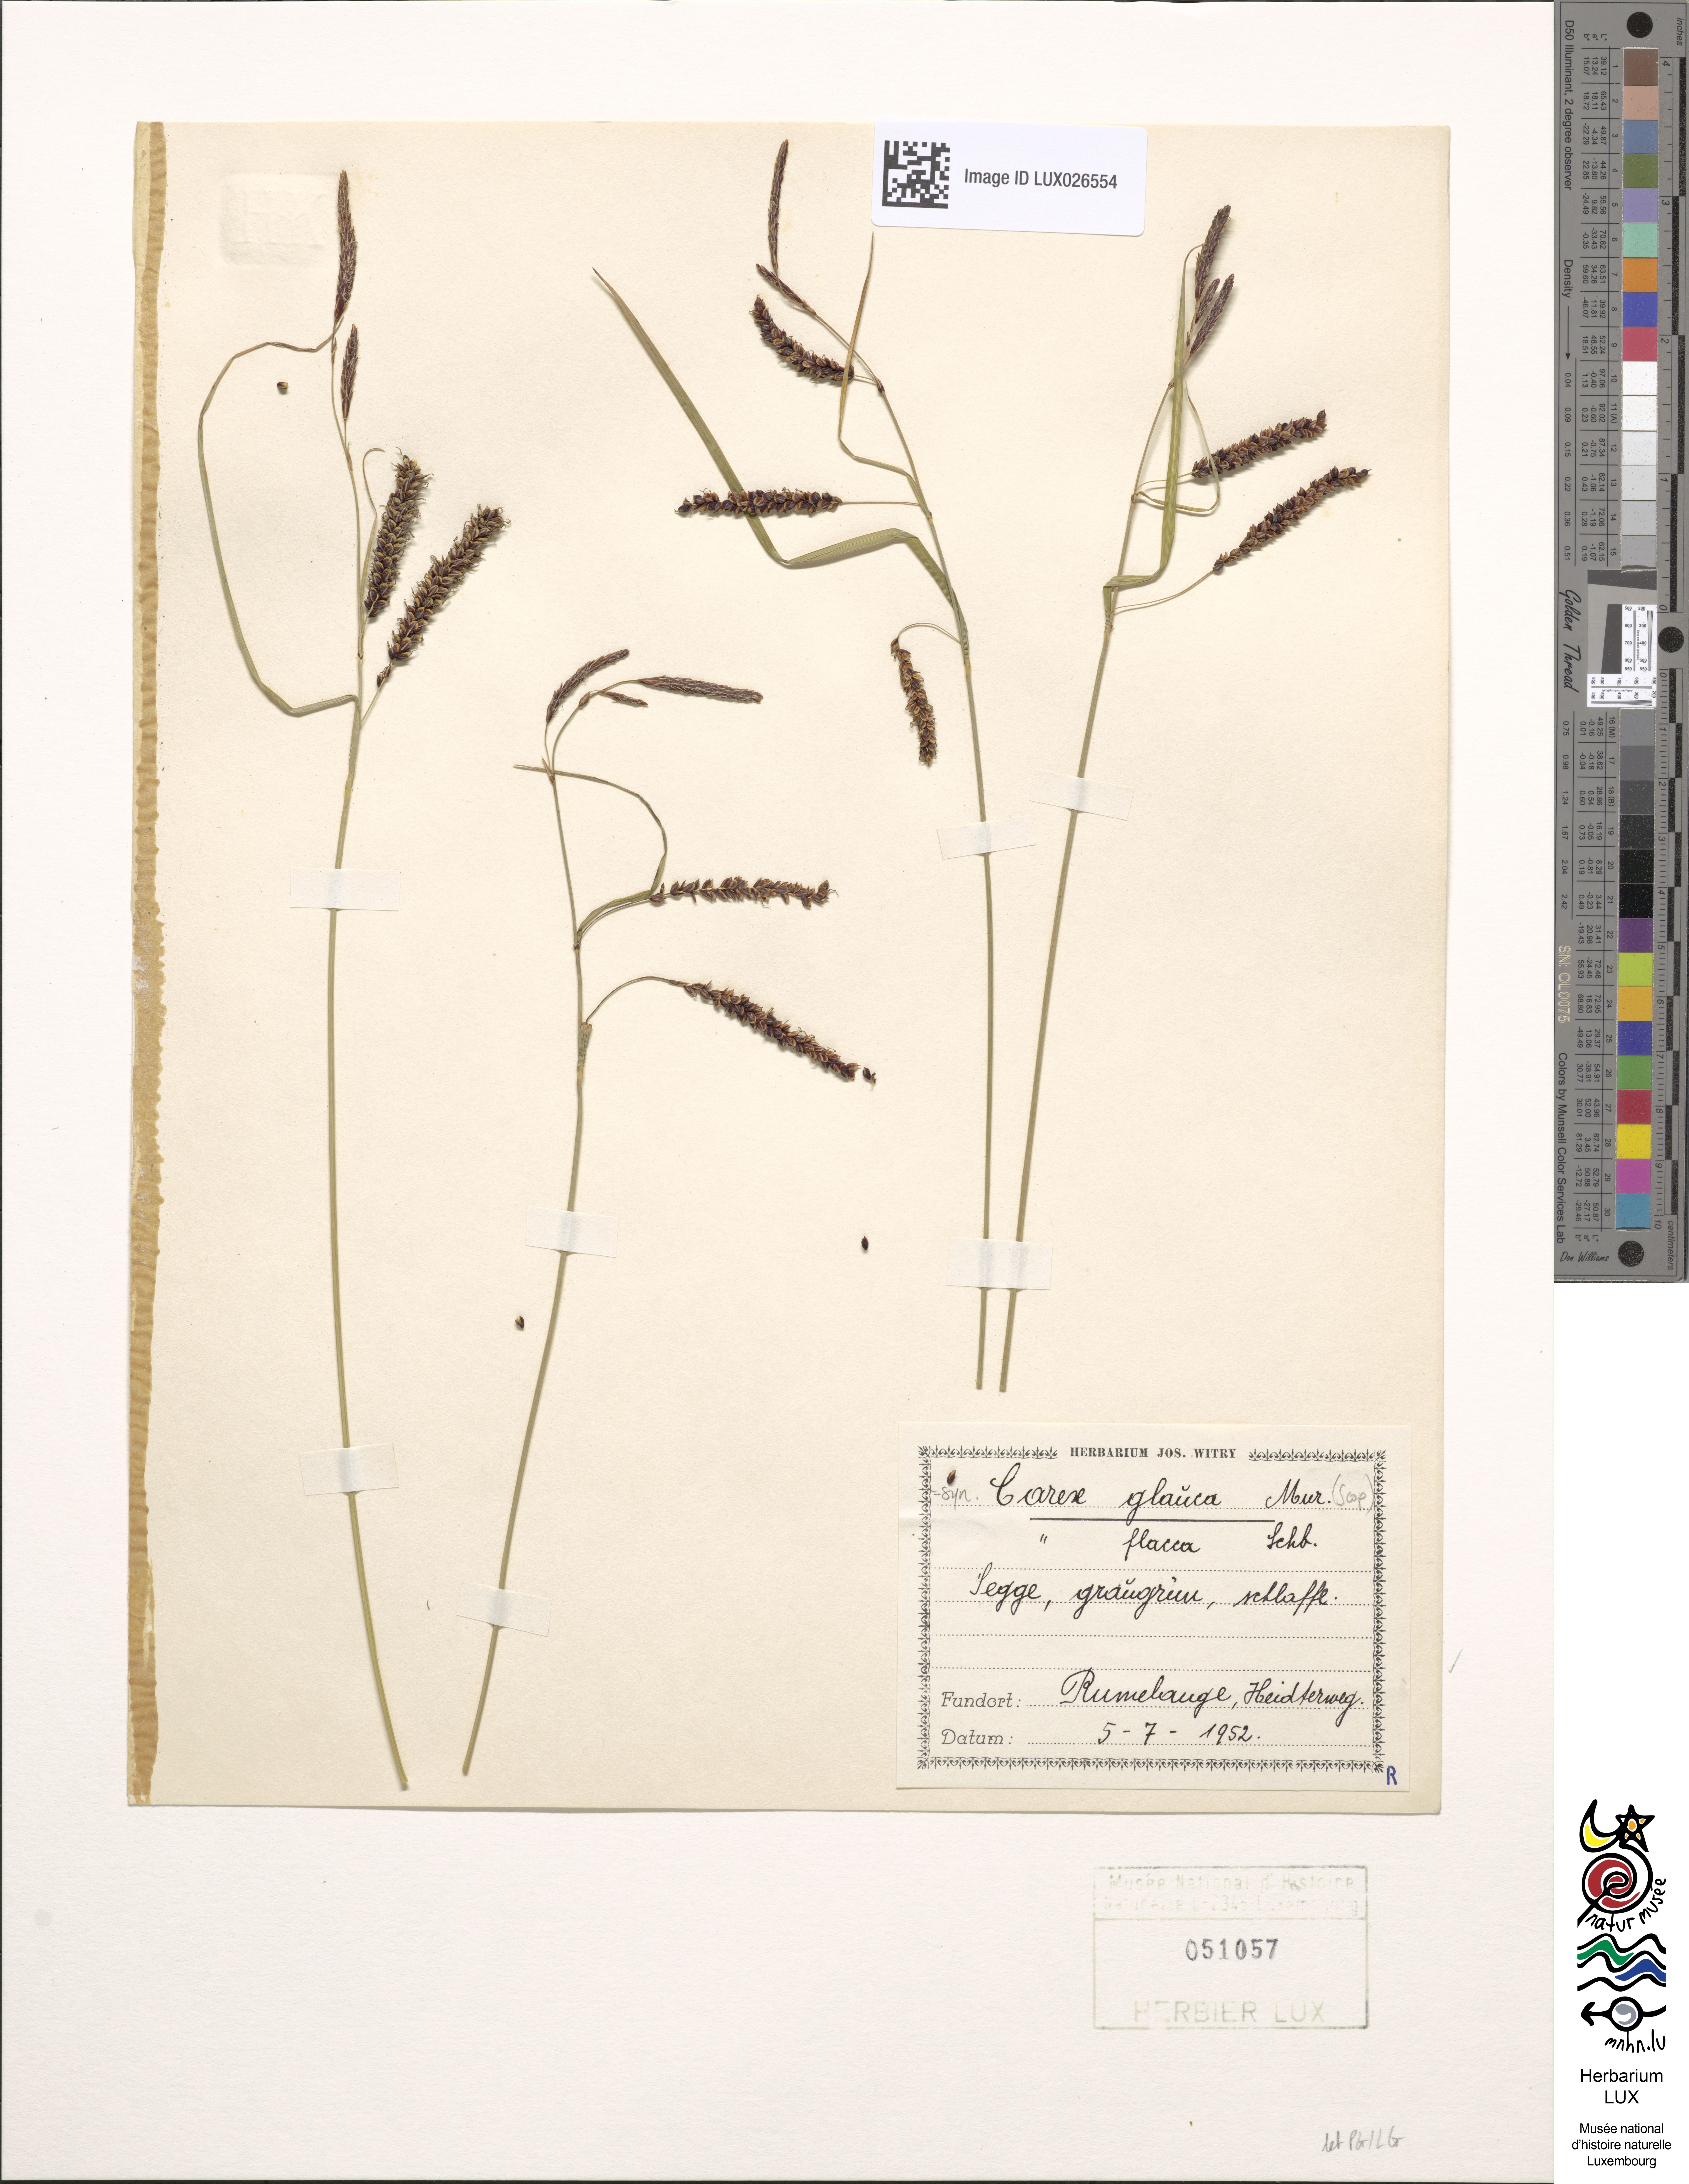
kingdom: Plantae
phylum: Tracheophyta
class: Liliopsida
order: Poales
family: Cyperaceae
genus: Carex
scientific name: Carex flacca
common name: Glaucous sedge
